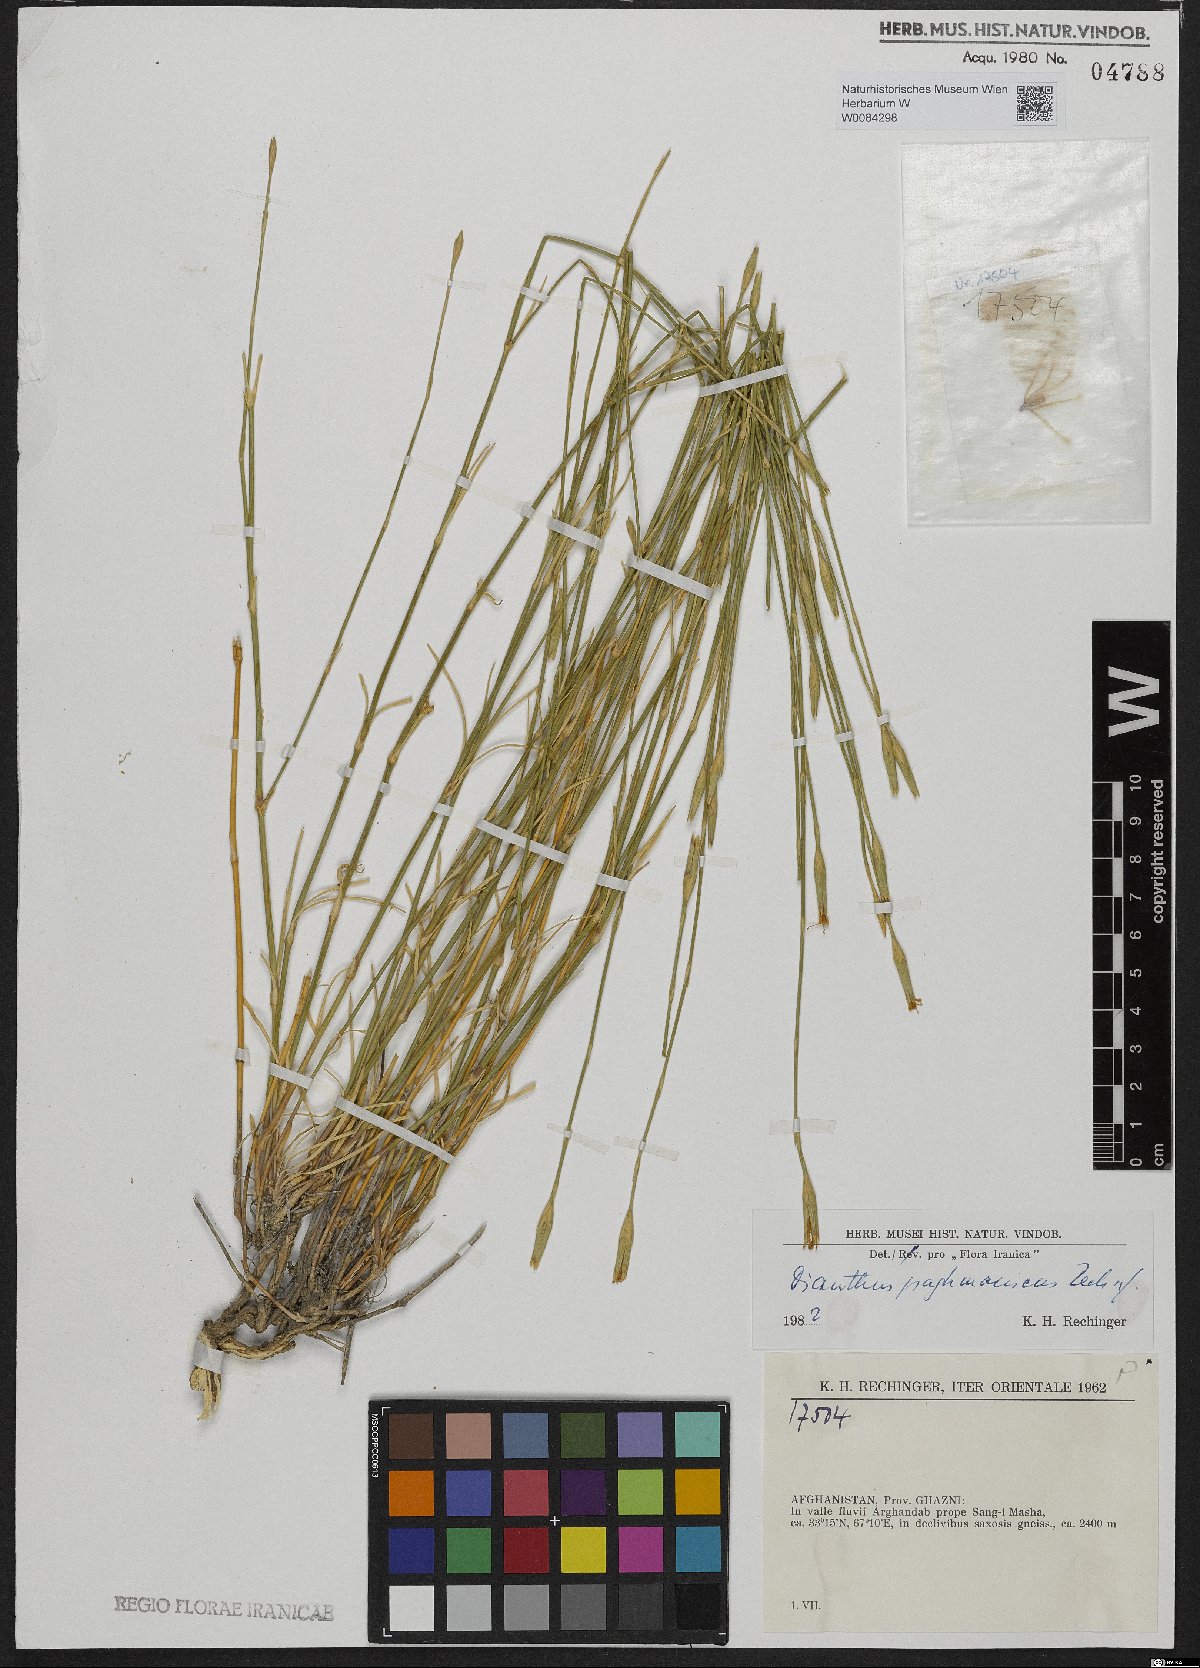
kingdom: Plantae
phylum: Tracheophyta
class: Magnoliopsida
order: Caryophyllales
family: Caryophyllaceae
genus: Dianthus
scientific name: Dianthus paghmanicus
